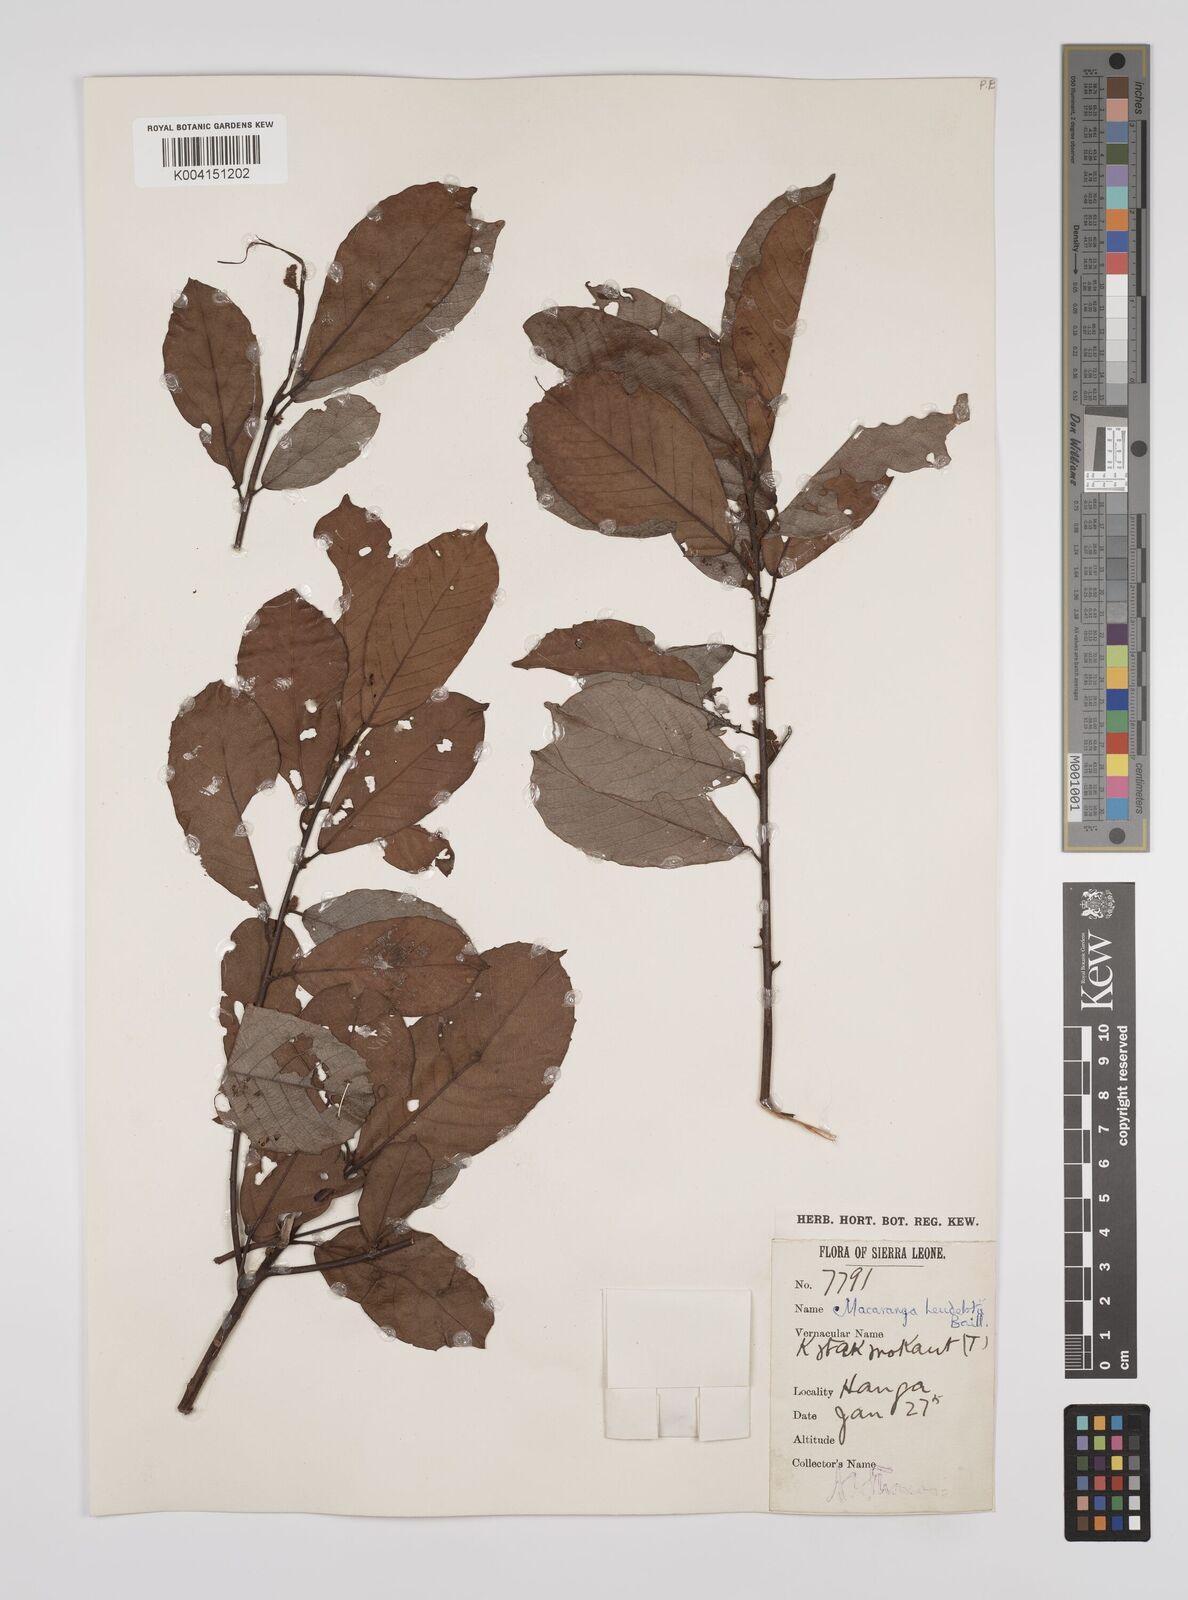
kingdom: Plantae
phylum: Tracheophyta
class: Magnoliopsida
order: Malpighiales
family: Euphorbiaceae
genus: Macaranga
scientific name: Macaranga heudelotii
